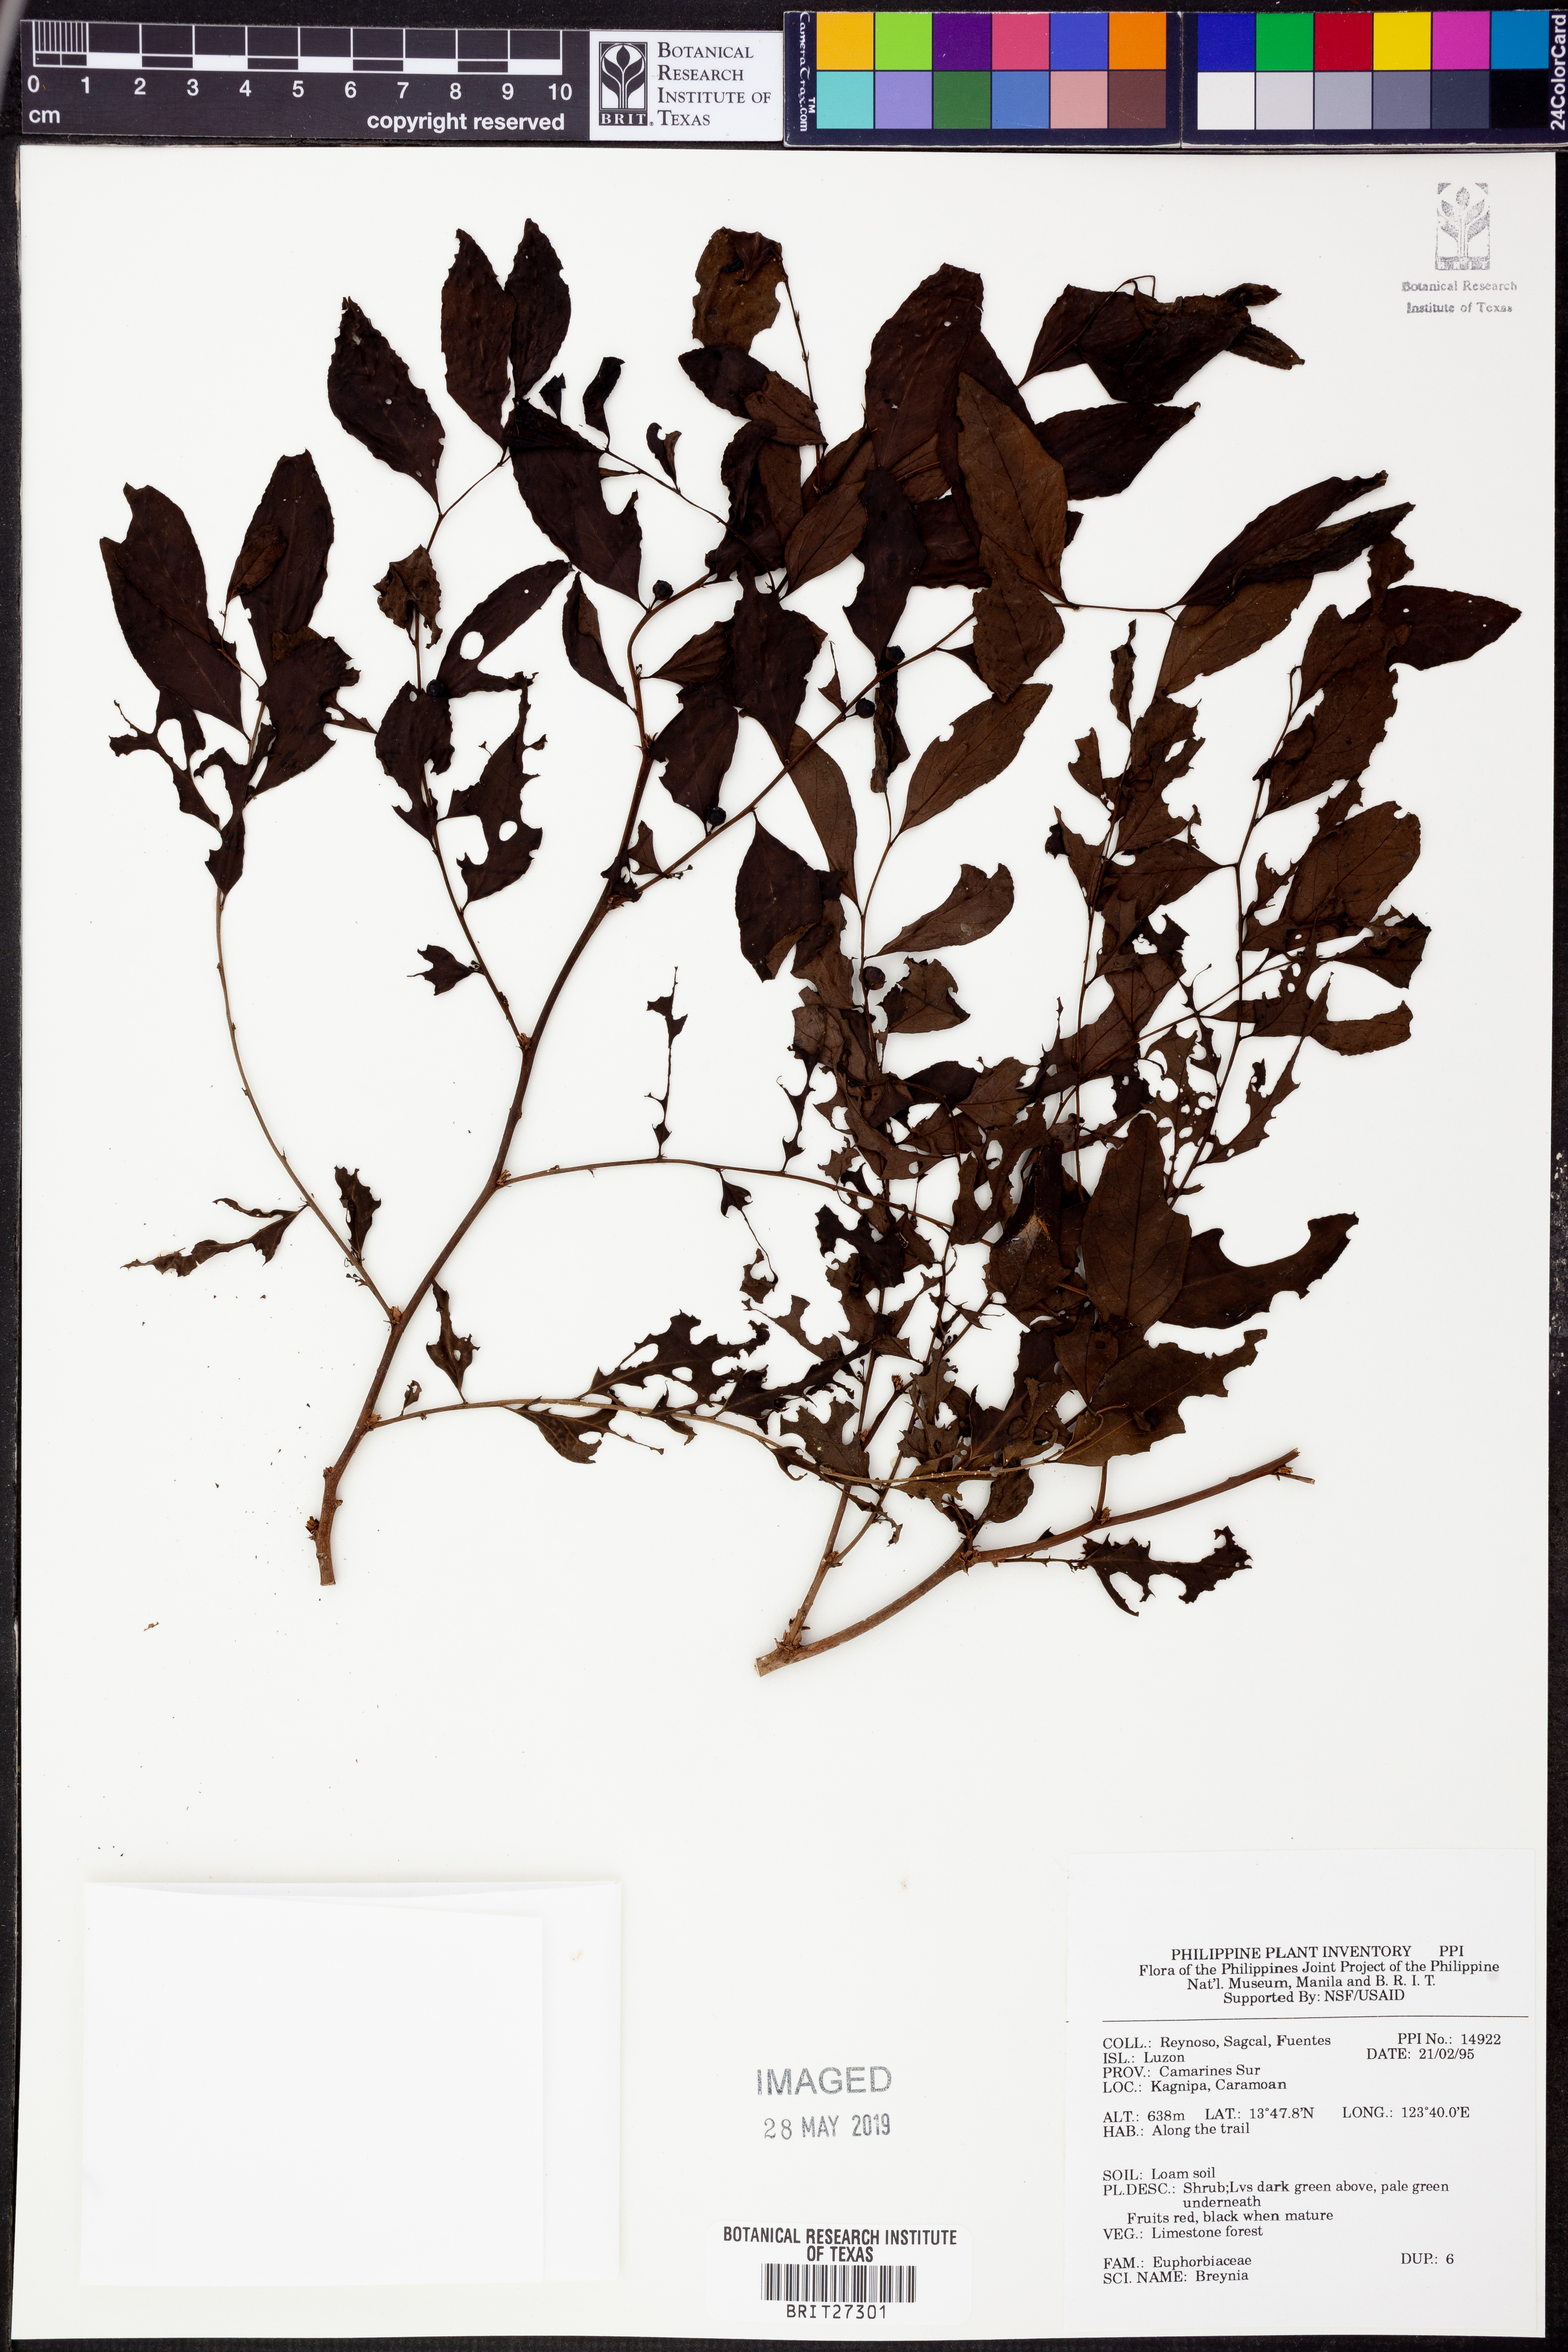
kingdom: Plantae
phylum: Tracheophyta
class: Magnoliopsida
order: Malpighiales
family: Phyllanthaceae
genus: Breynia
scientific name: Breynia
